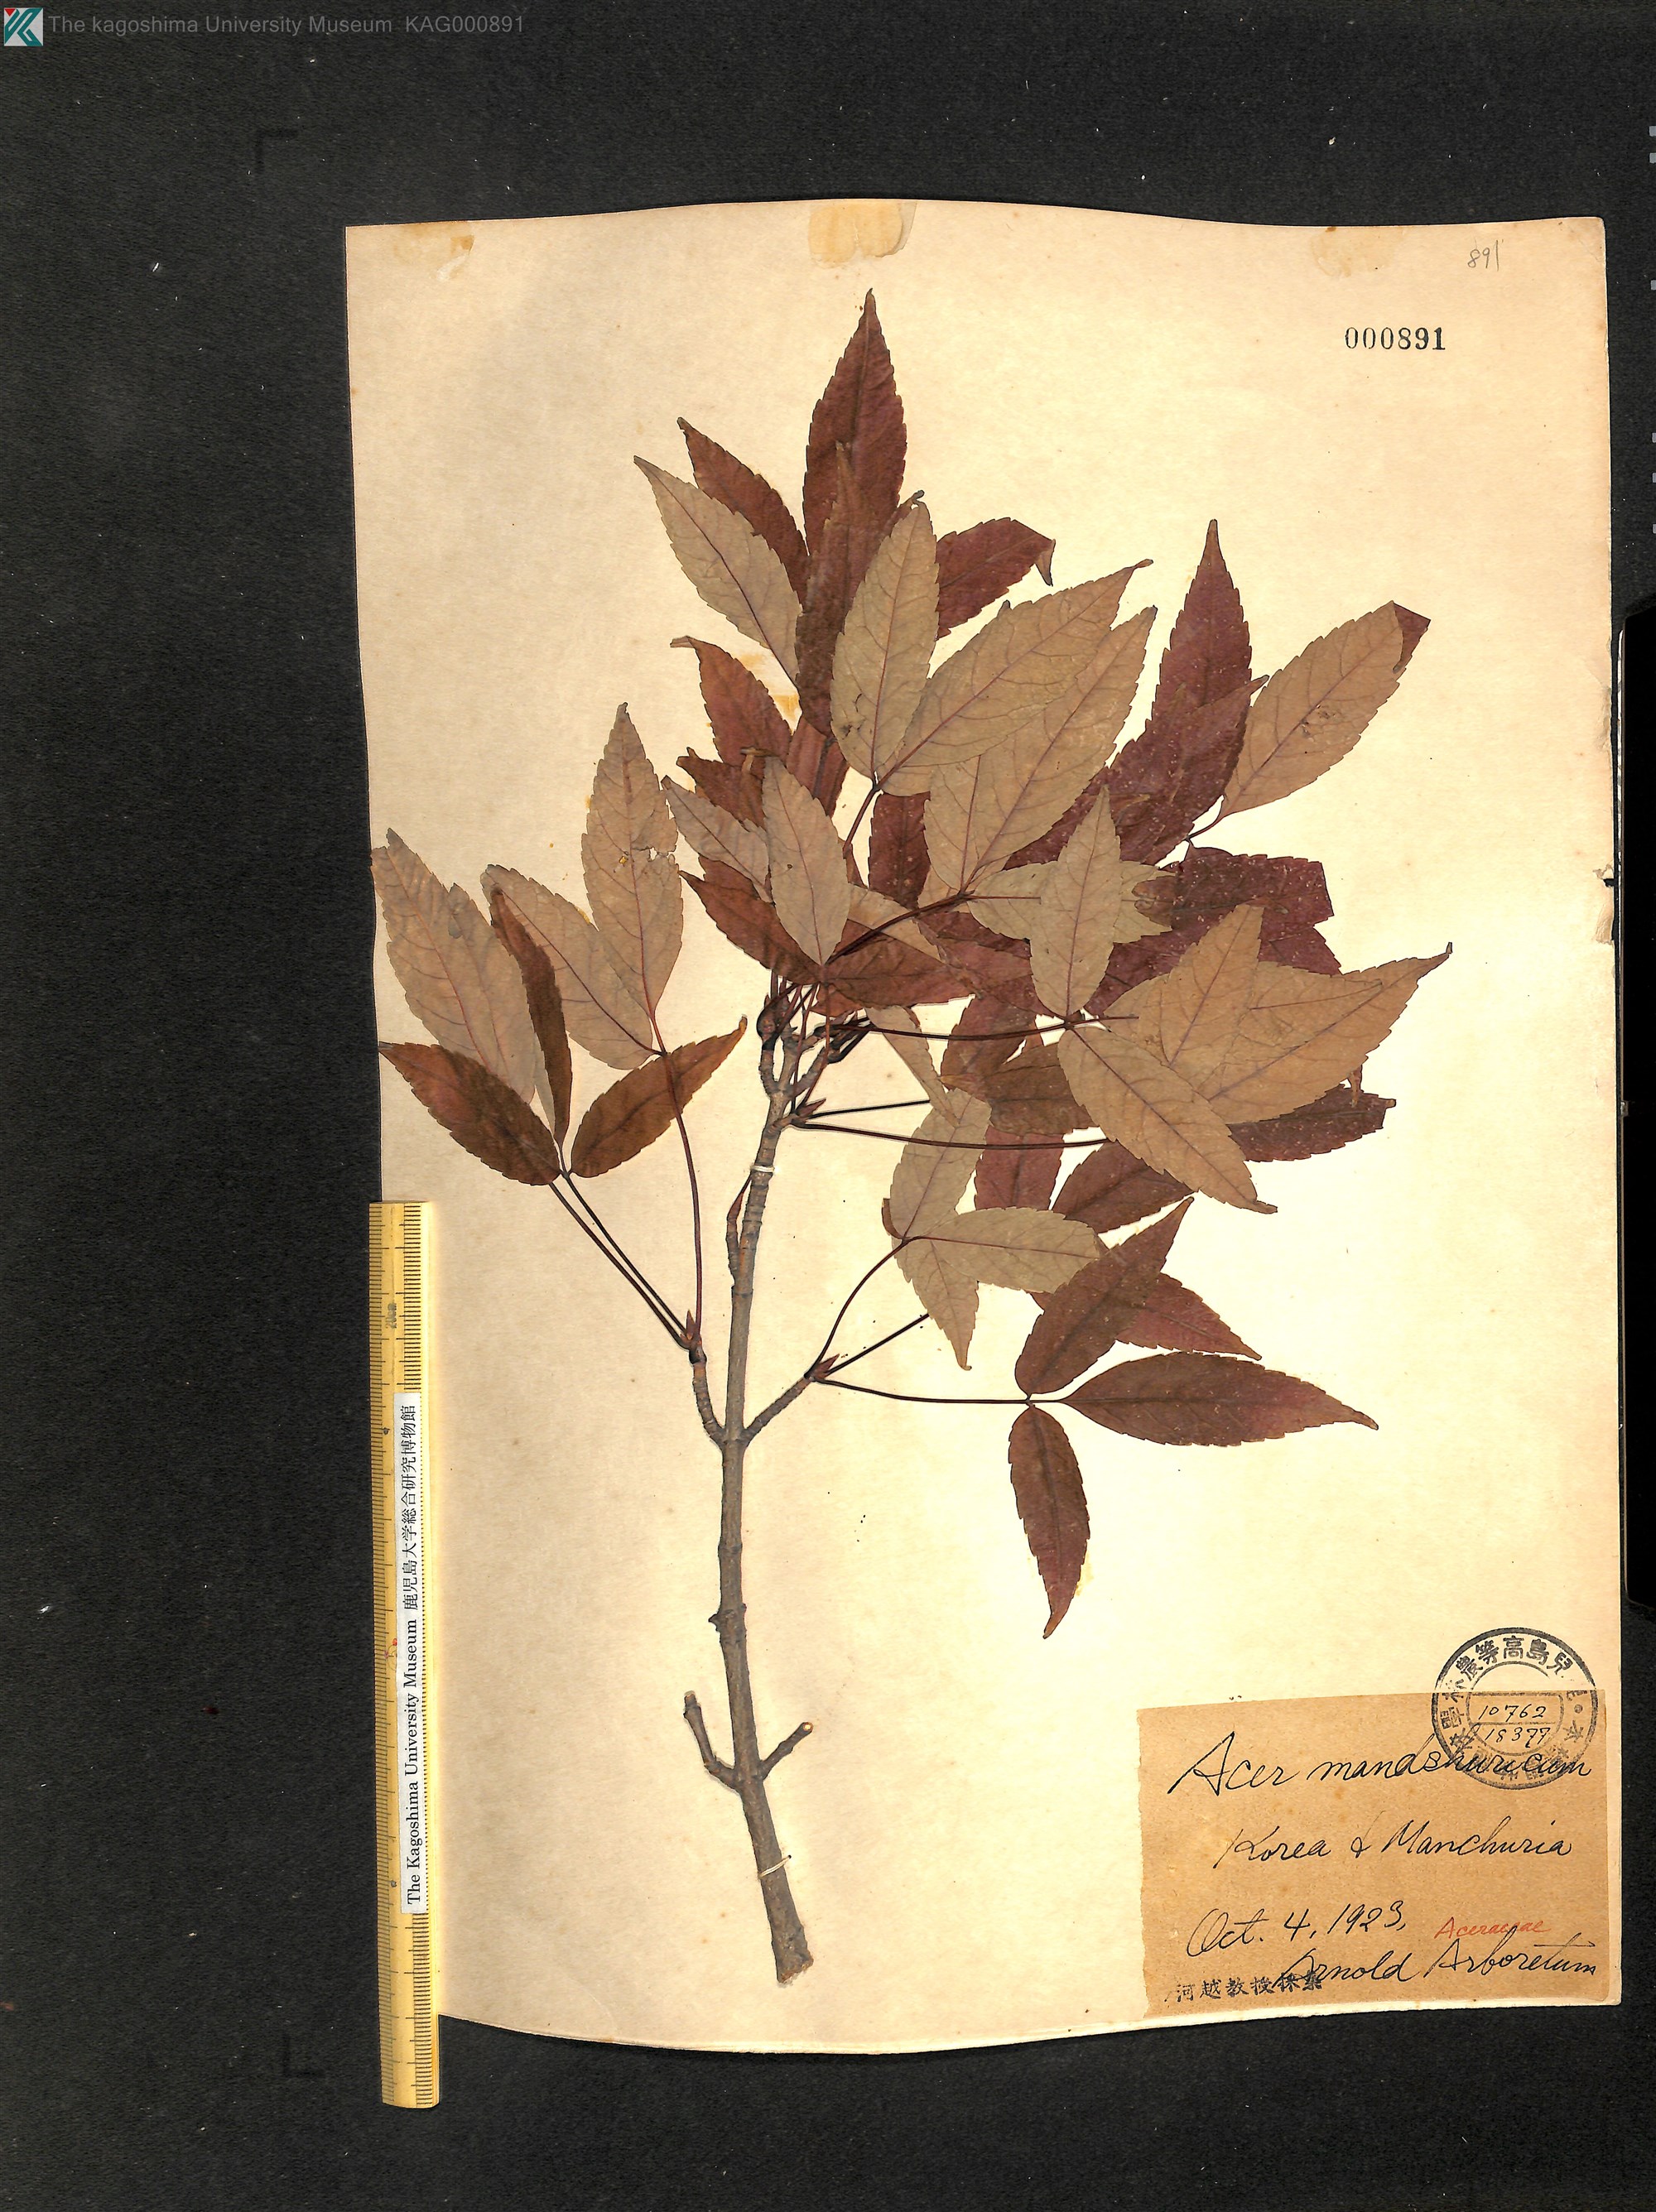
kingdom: Plantae
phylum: Tracheophyta
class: Magnoliopsida
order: Sapindales
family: Sapindaceae
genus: Acer
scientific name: Acer mandshuricum
